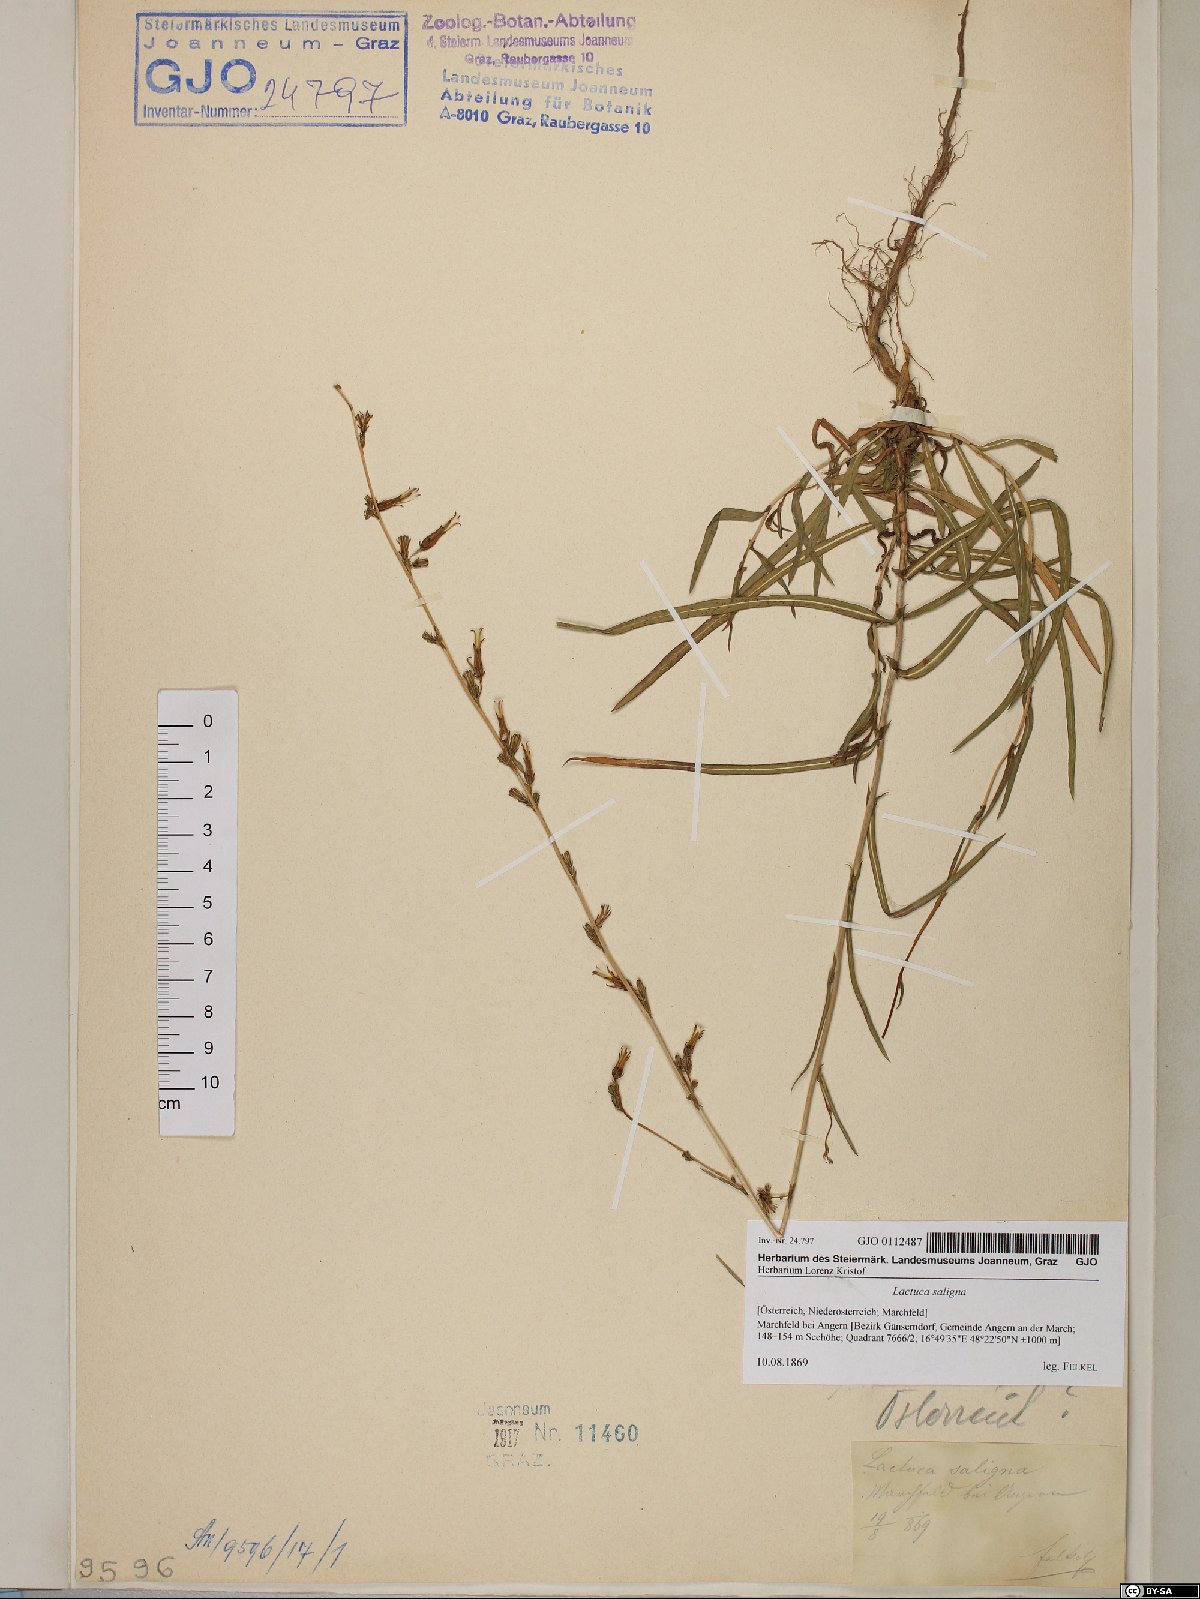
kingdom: Plantae
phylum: Tracheophyta
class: Magnoliopsida
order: Asterales
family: Asteraceae
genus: Lactuca
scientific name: Lactuca saligna
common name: Wild lettuce
